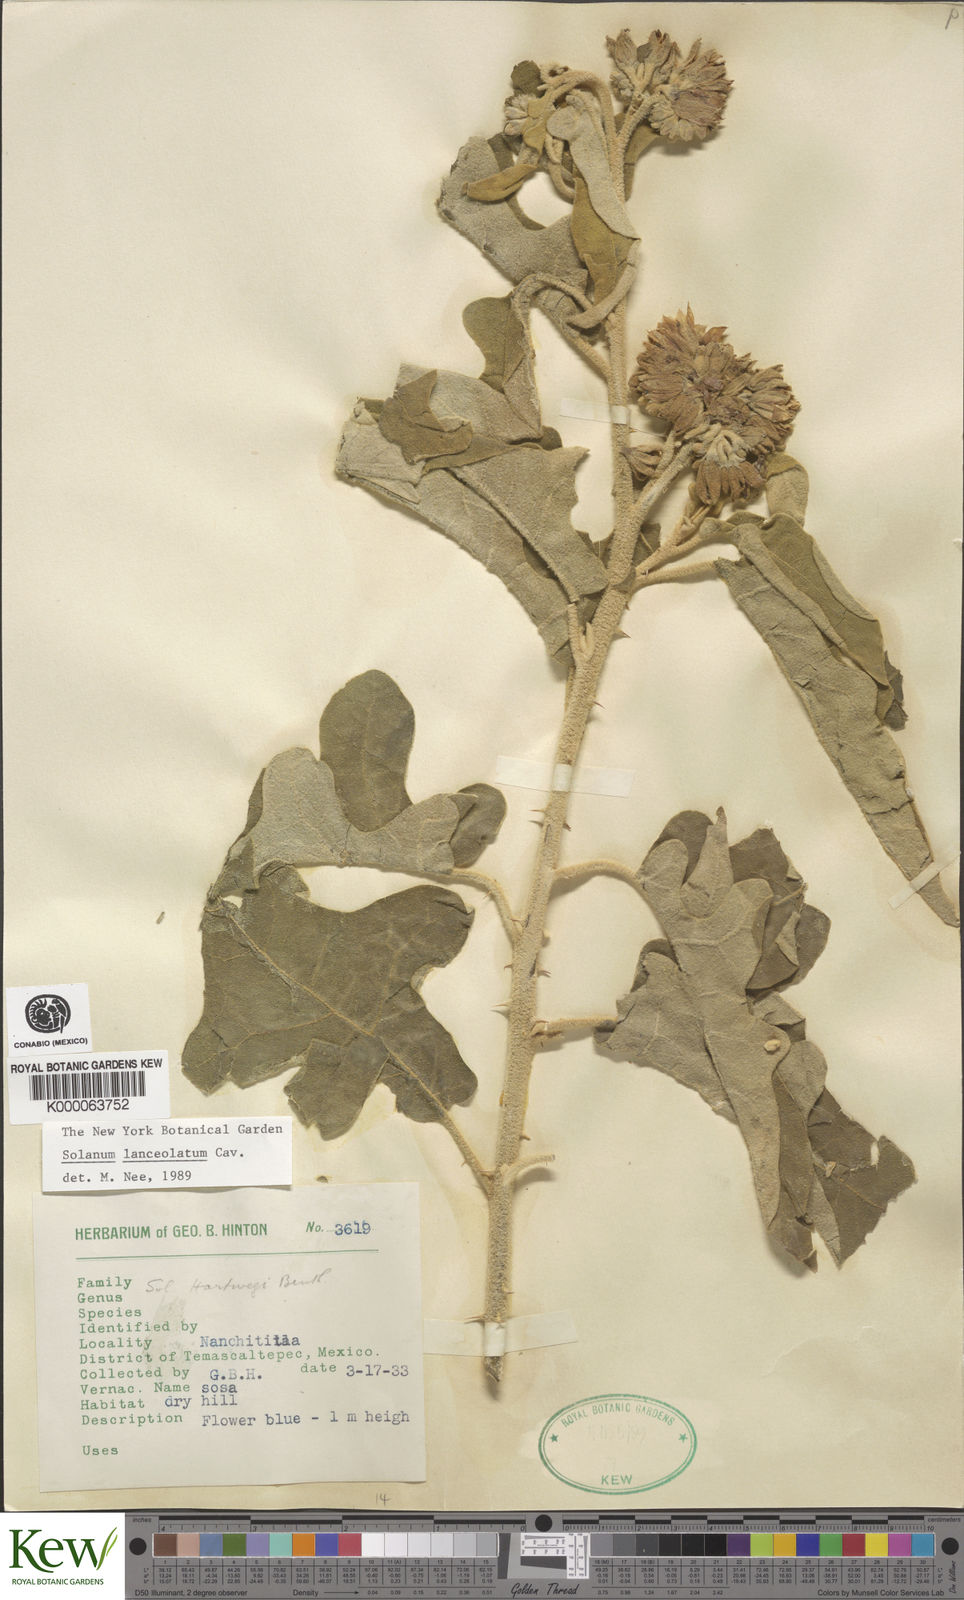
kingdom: Plantae
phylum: Tracheophyta
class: Magnoliopsida
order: Solanales
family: Solanaceae
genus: Solanum
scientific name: Solanum lanceolatum
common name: Orangeberry nightshade
